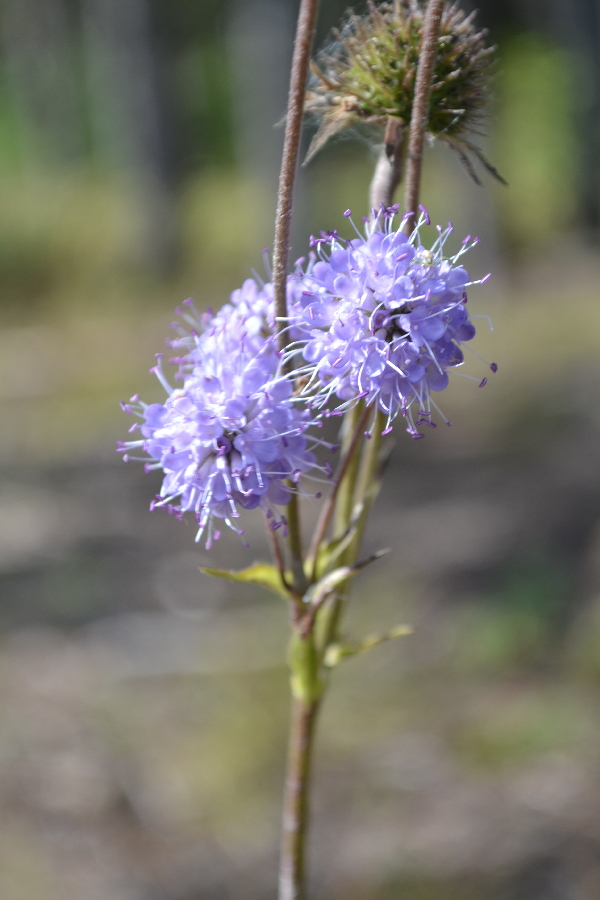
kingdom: Plantae
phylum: Tracheophyta
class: Magnoliopsida
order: Dipsacales
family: Caprifoliaceae
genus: Succisa
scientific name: Succisa pratensis
